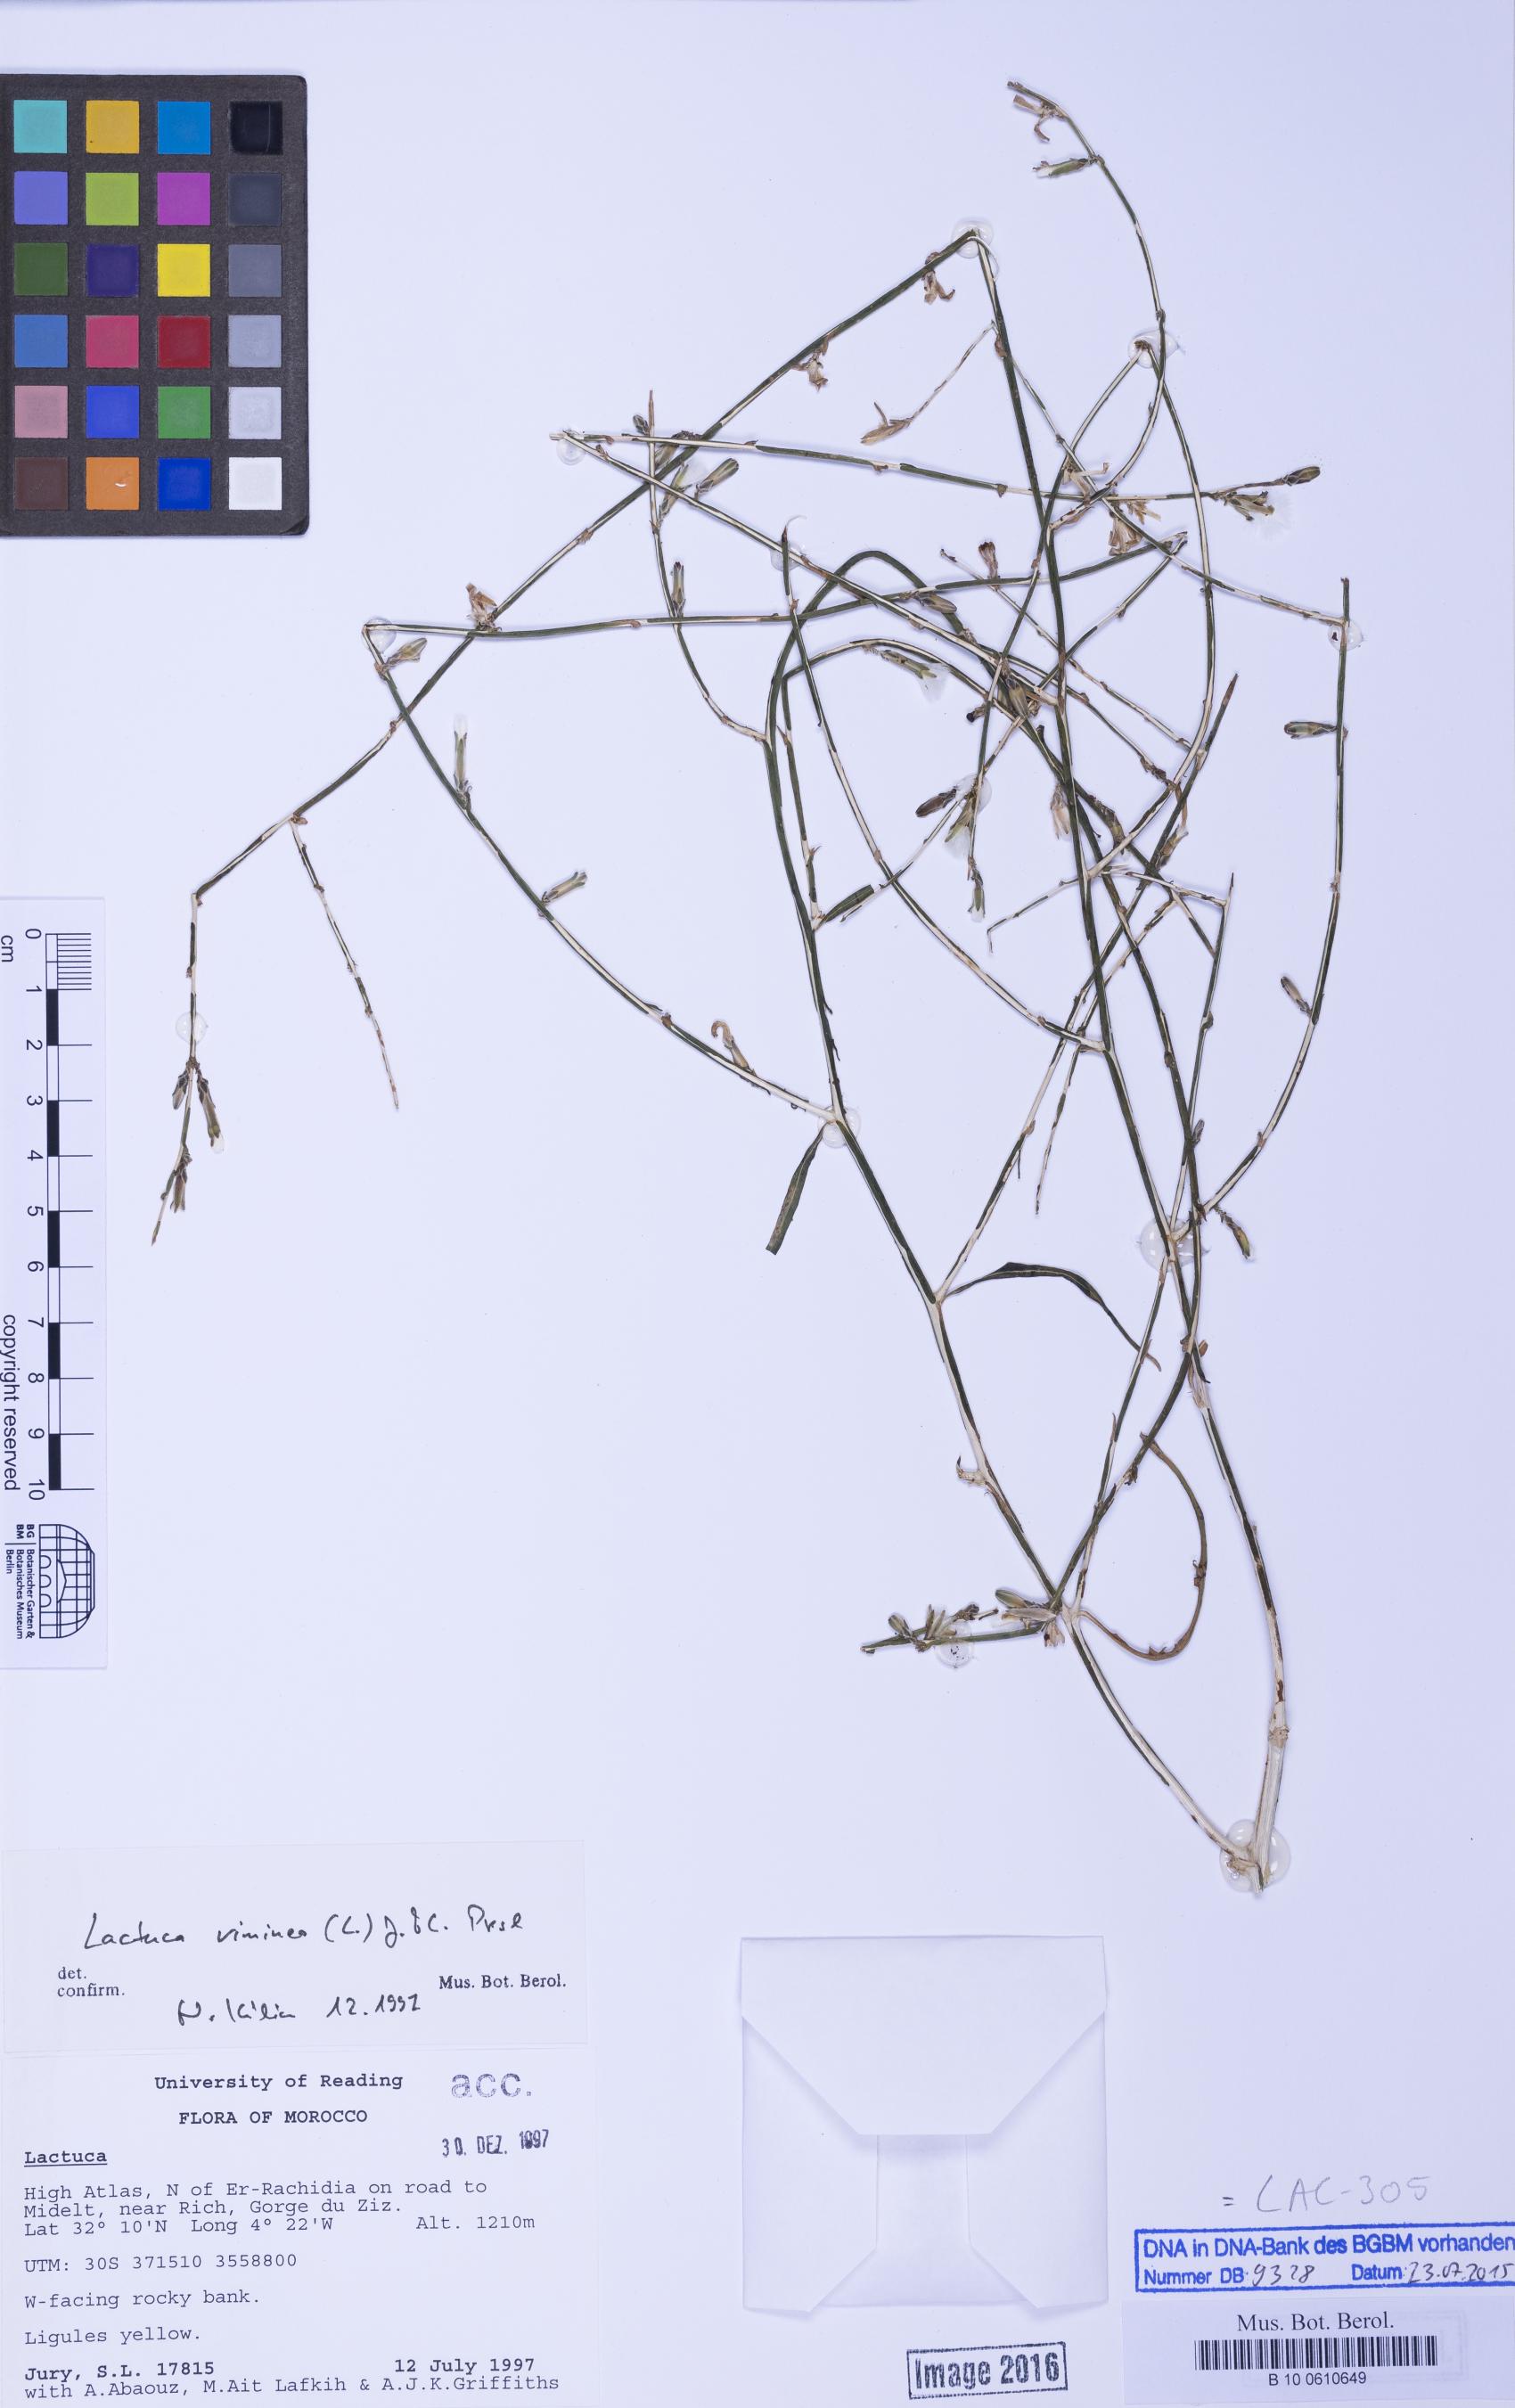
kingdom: Plantae
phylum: Tracheophyta
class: Magnoliopsida
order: Asterales
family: Asteraceae
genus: Lactuca
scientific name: Lactuca viminea
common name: Pliant lettuce
